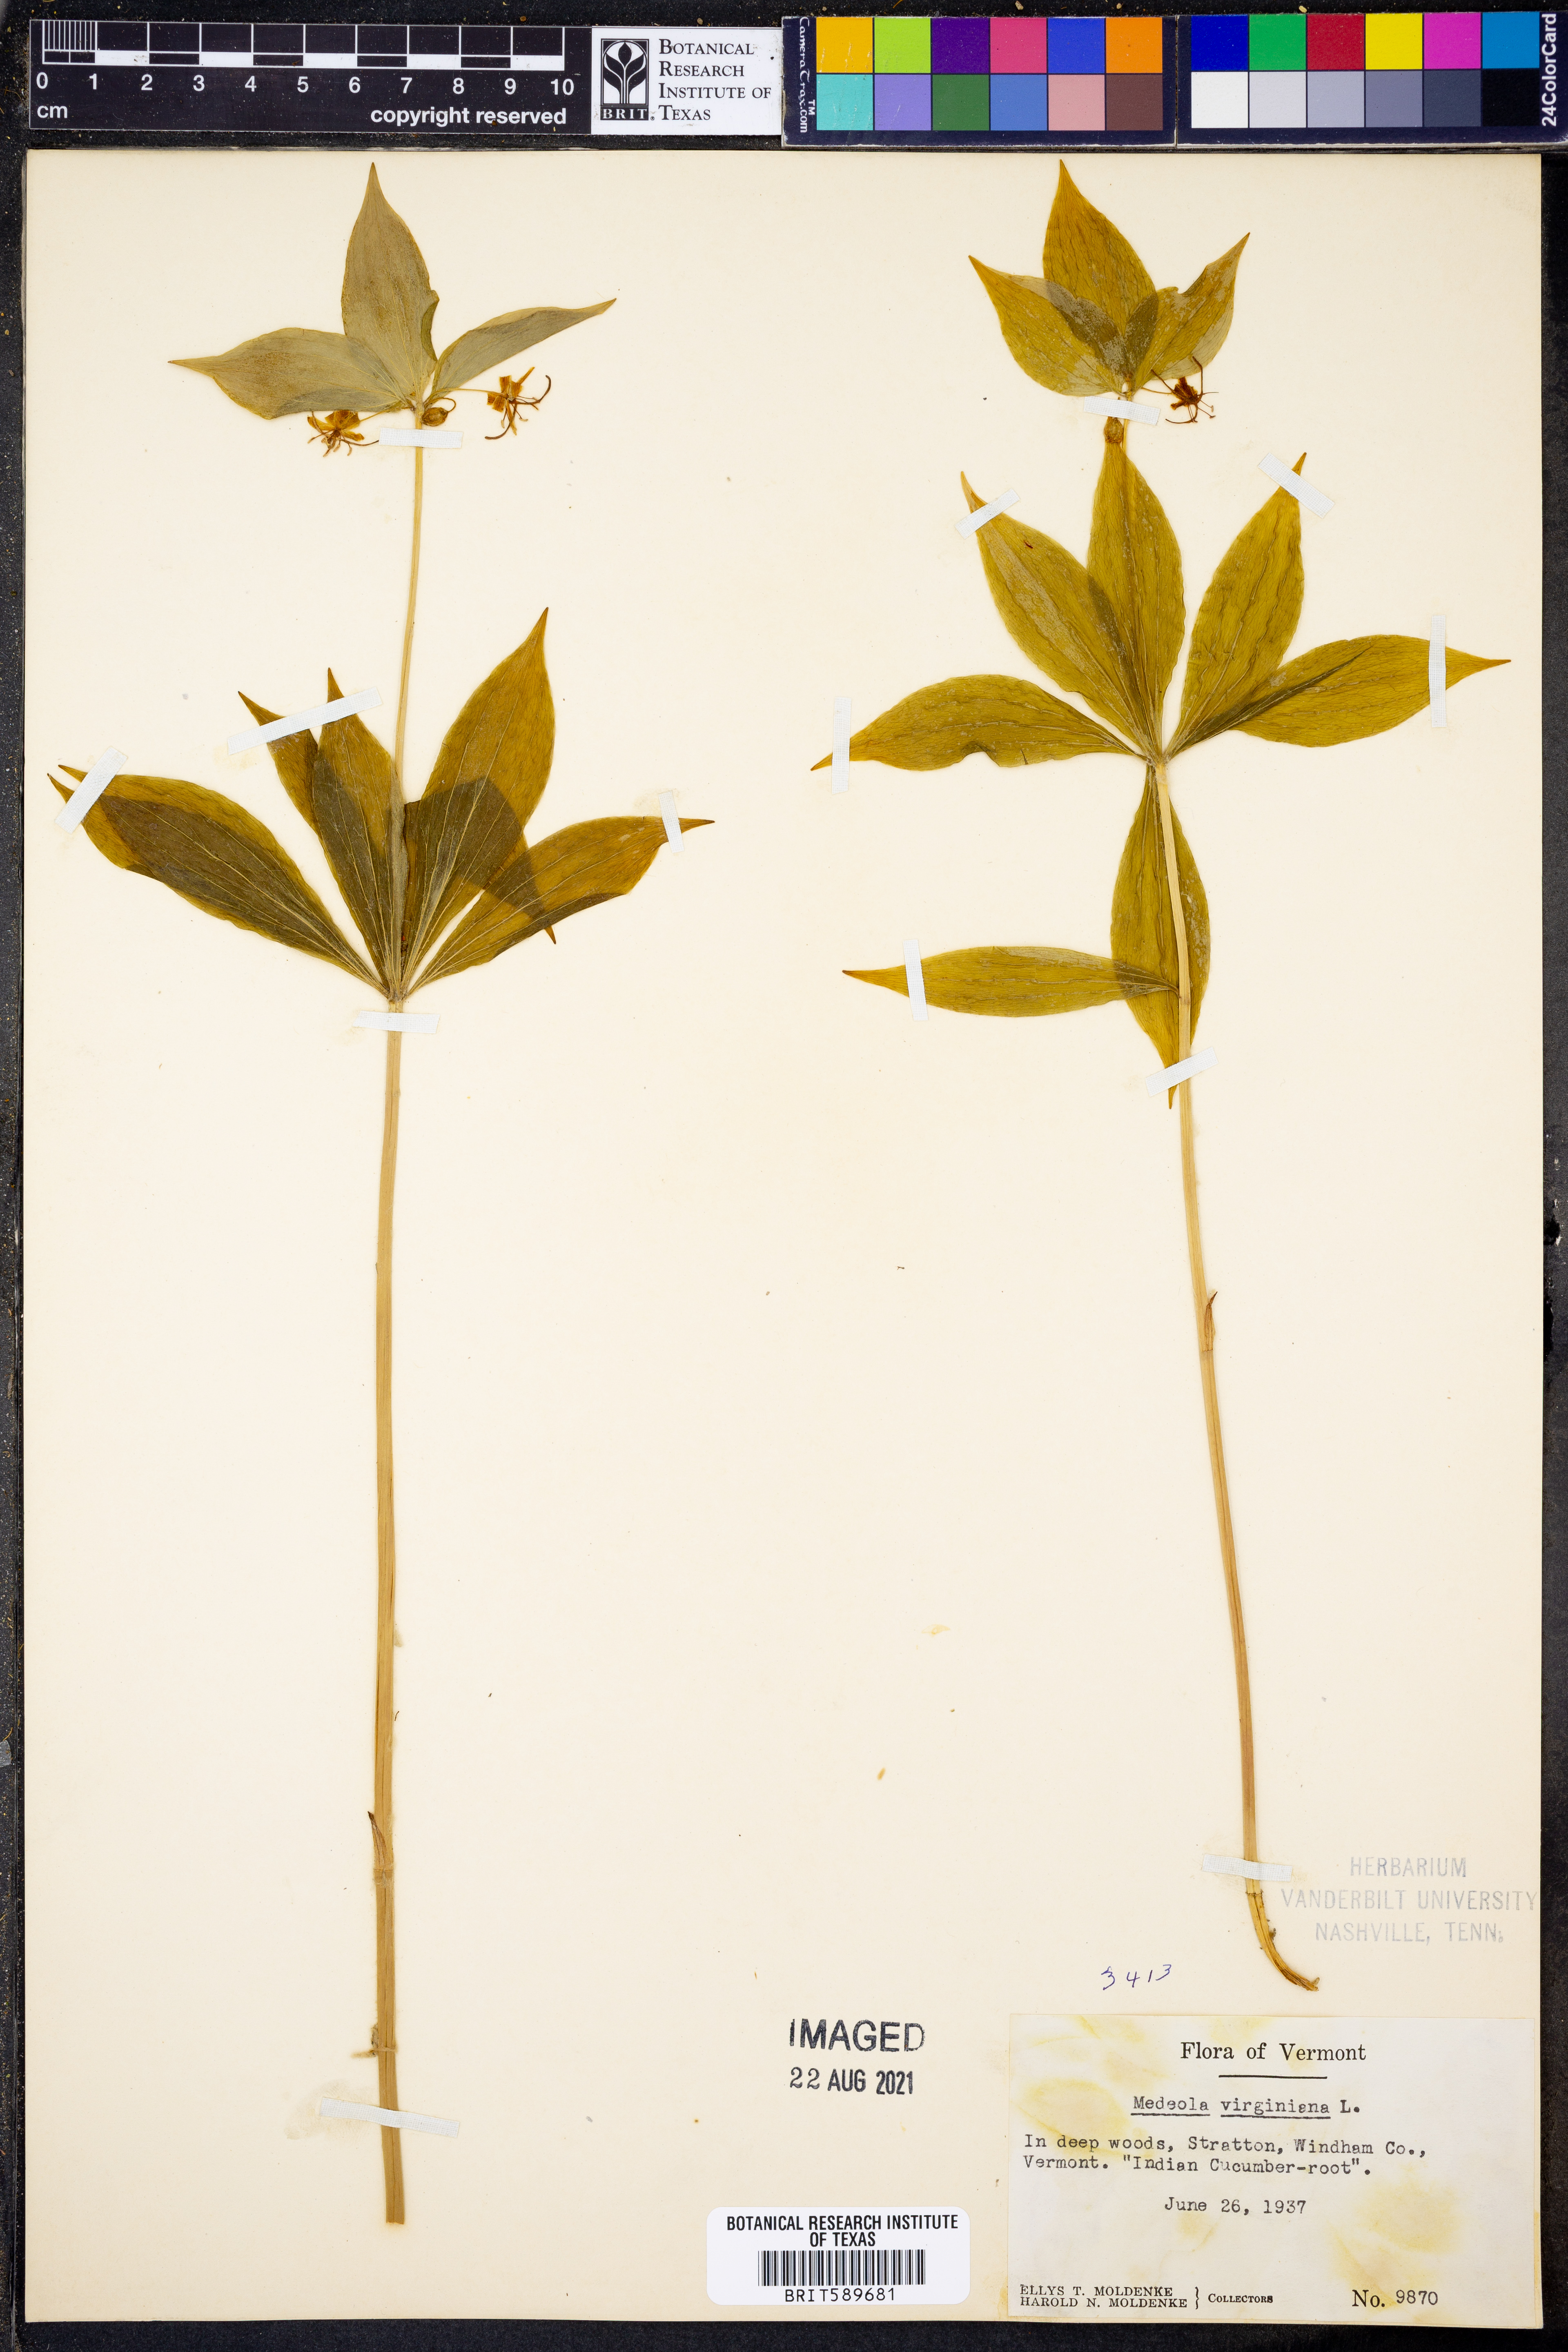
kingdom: Plantae
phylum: Tracheophyta
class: Liliopsida
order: Liliales
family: Liliaceae
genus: Medeola
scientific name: Medeola virginiana
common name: Indian cucumber-root
